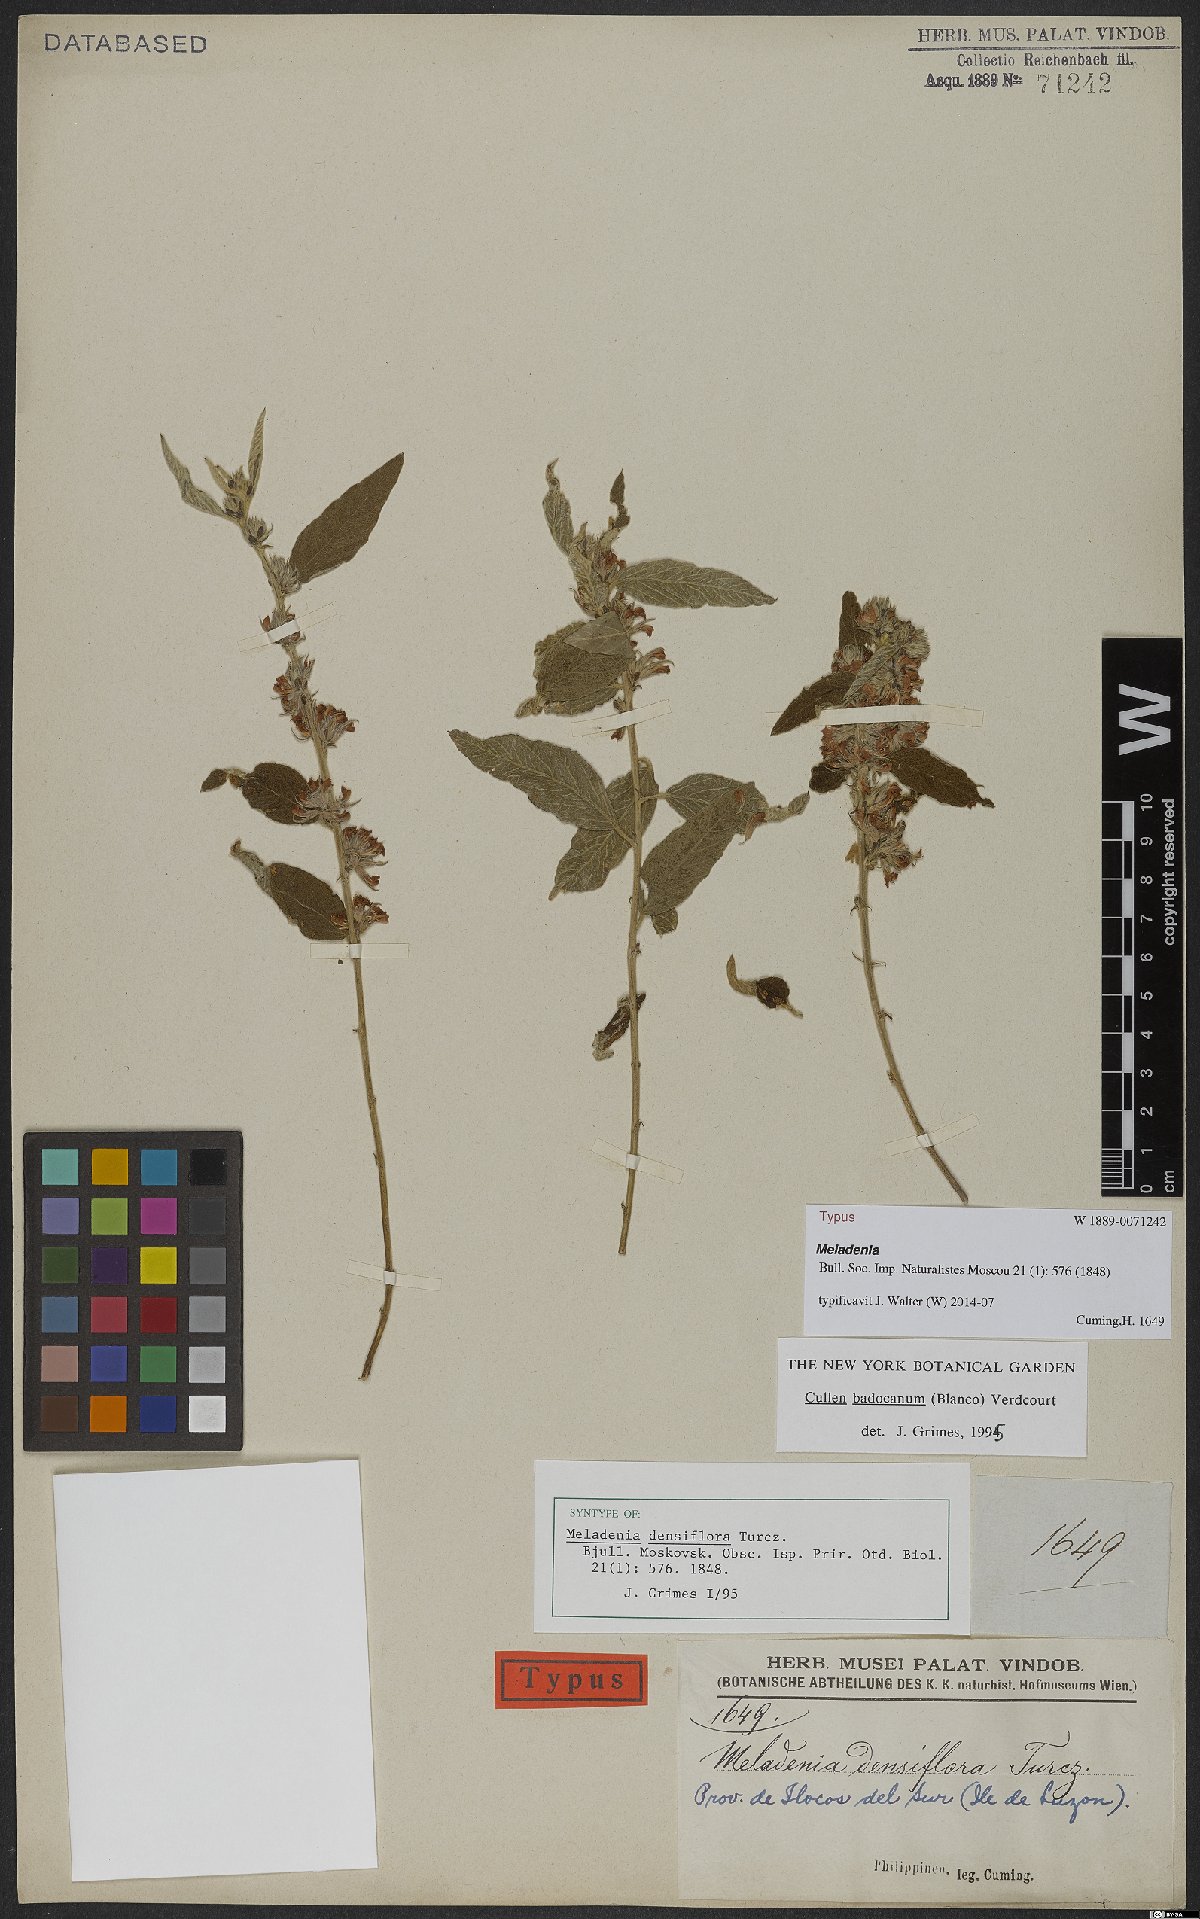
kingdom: Plantae
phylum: Tracheophyta
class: Magnoliopsida
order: Fabales
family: Fabaceae
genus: Cullen
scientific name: Cullen badocanum
